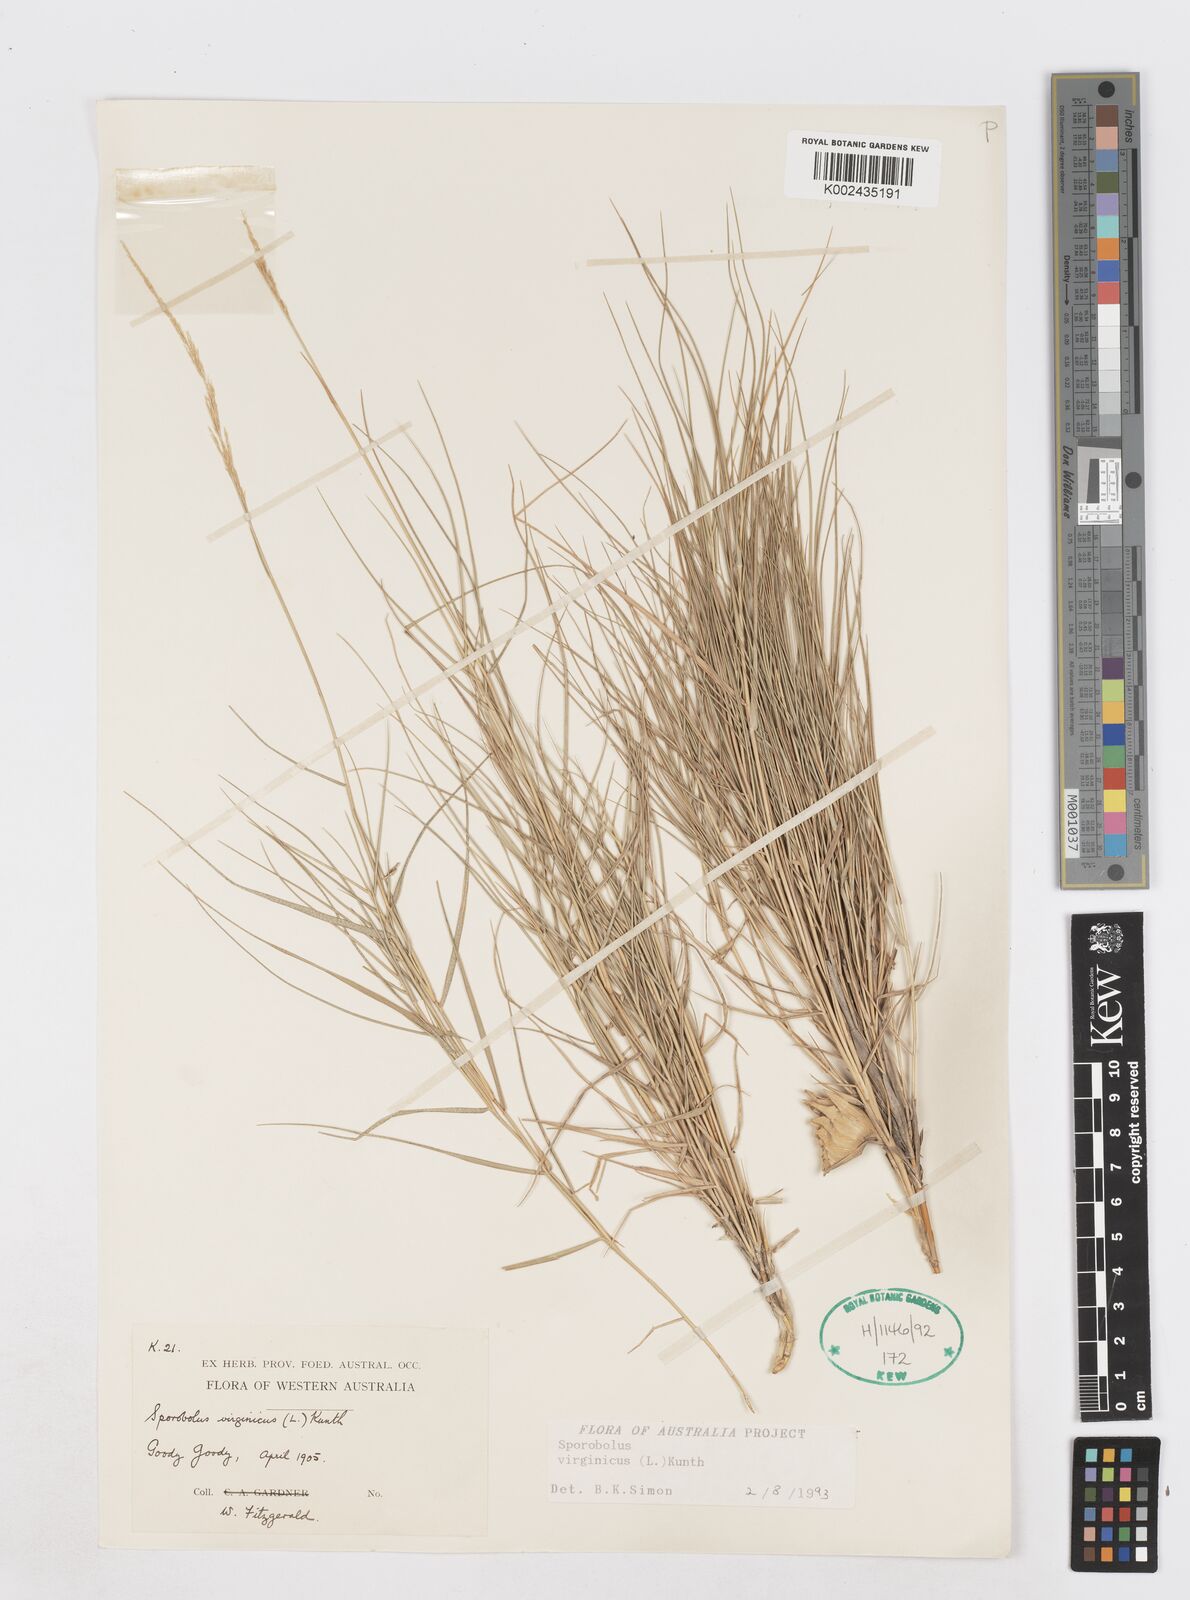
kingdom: Plantae
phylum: Tracheophyta
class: Liliopsida
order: Poales
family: Poaceae
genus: Sporobolus
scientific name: Sporobolus virginicus
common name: Beach dropseed
